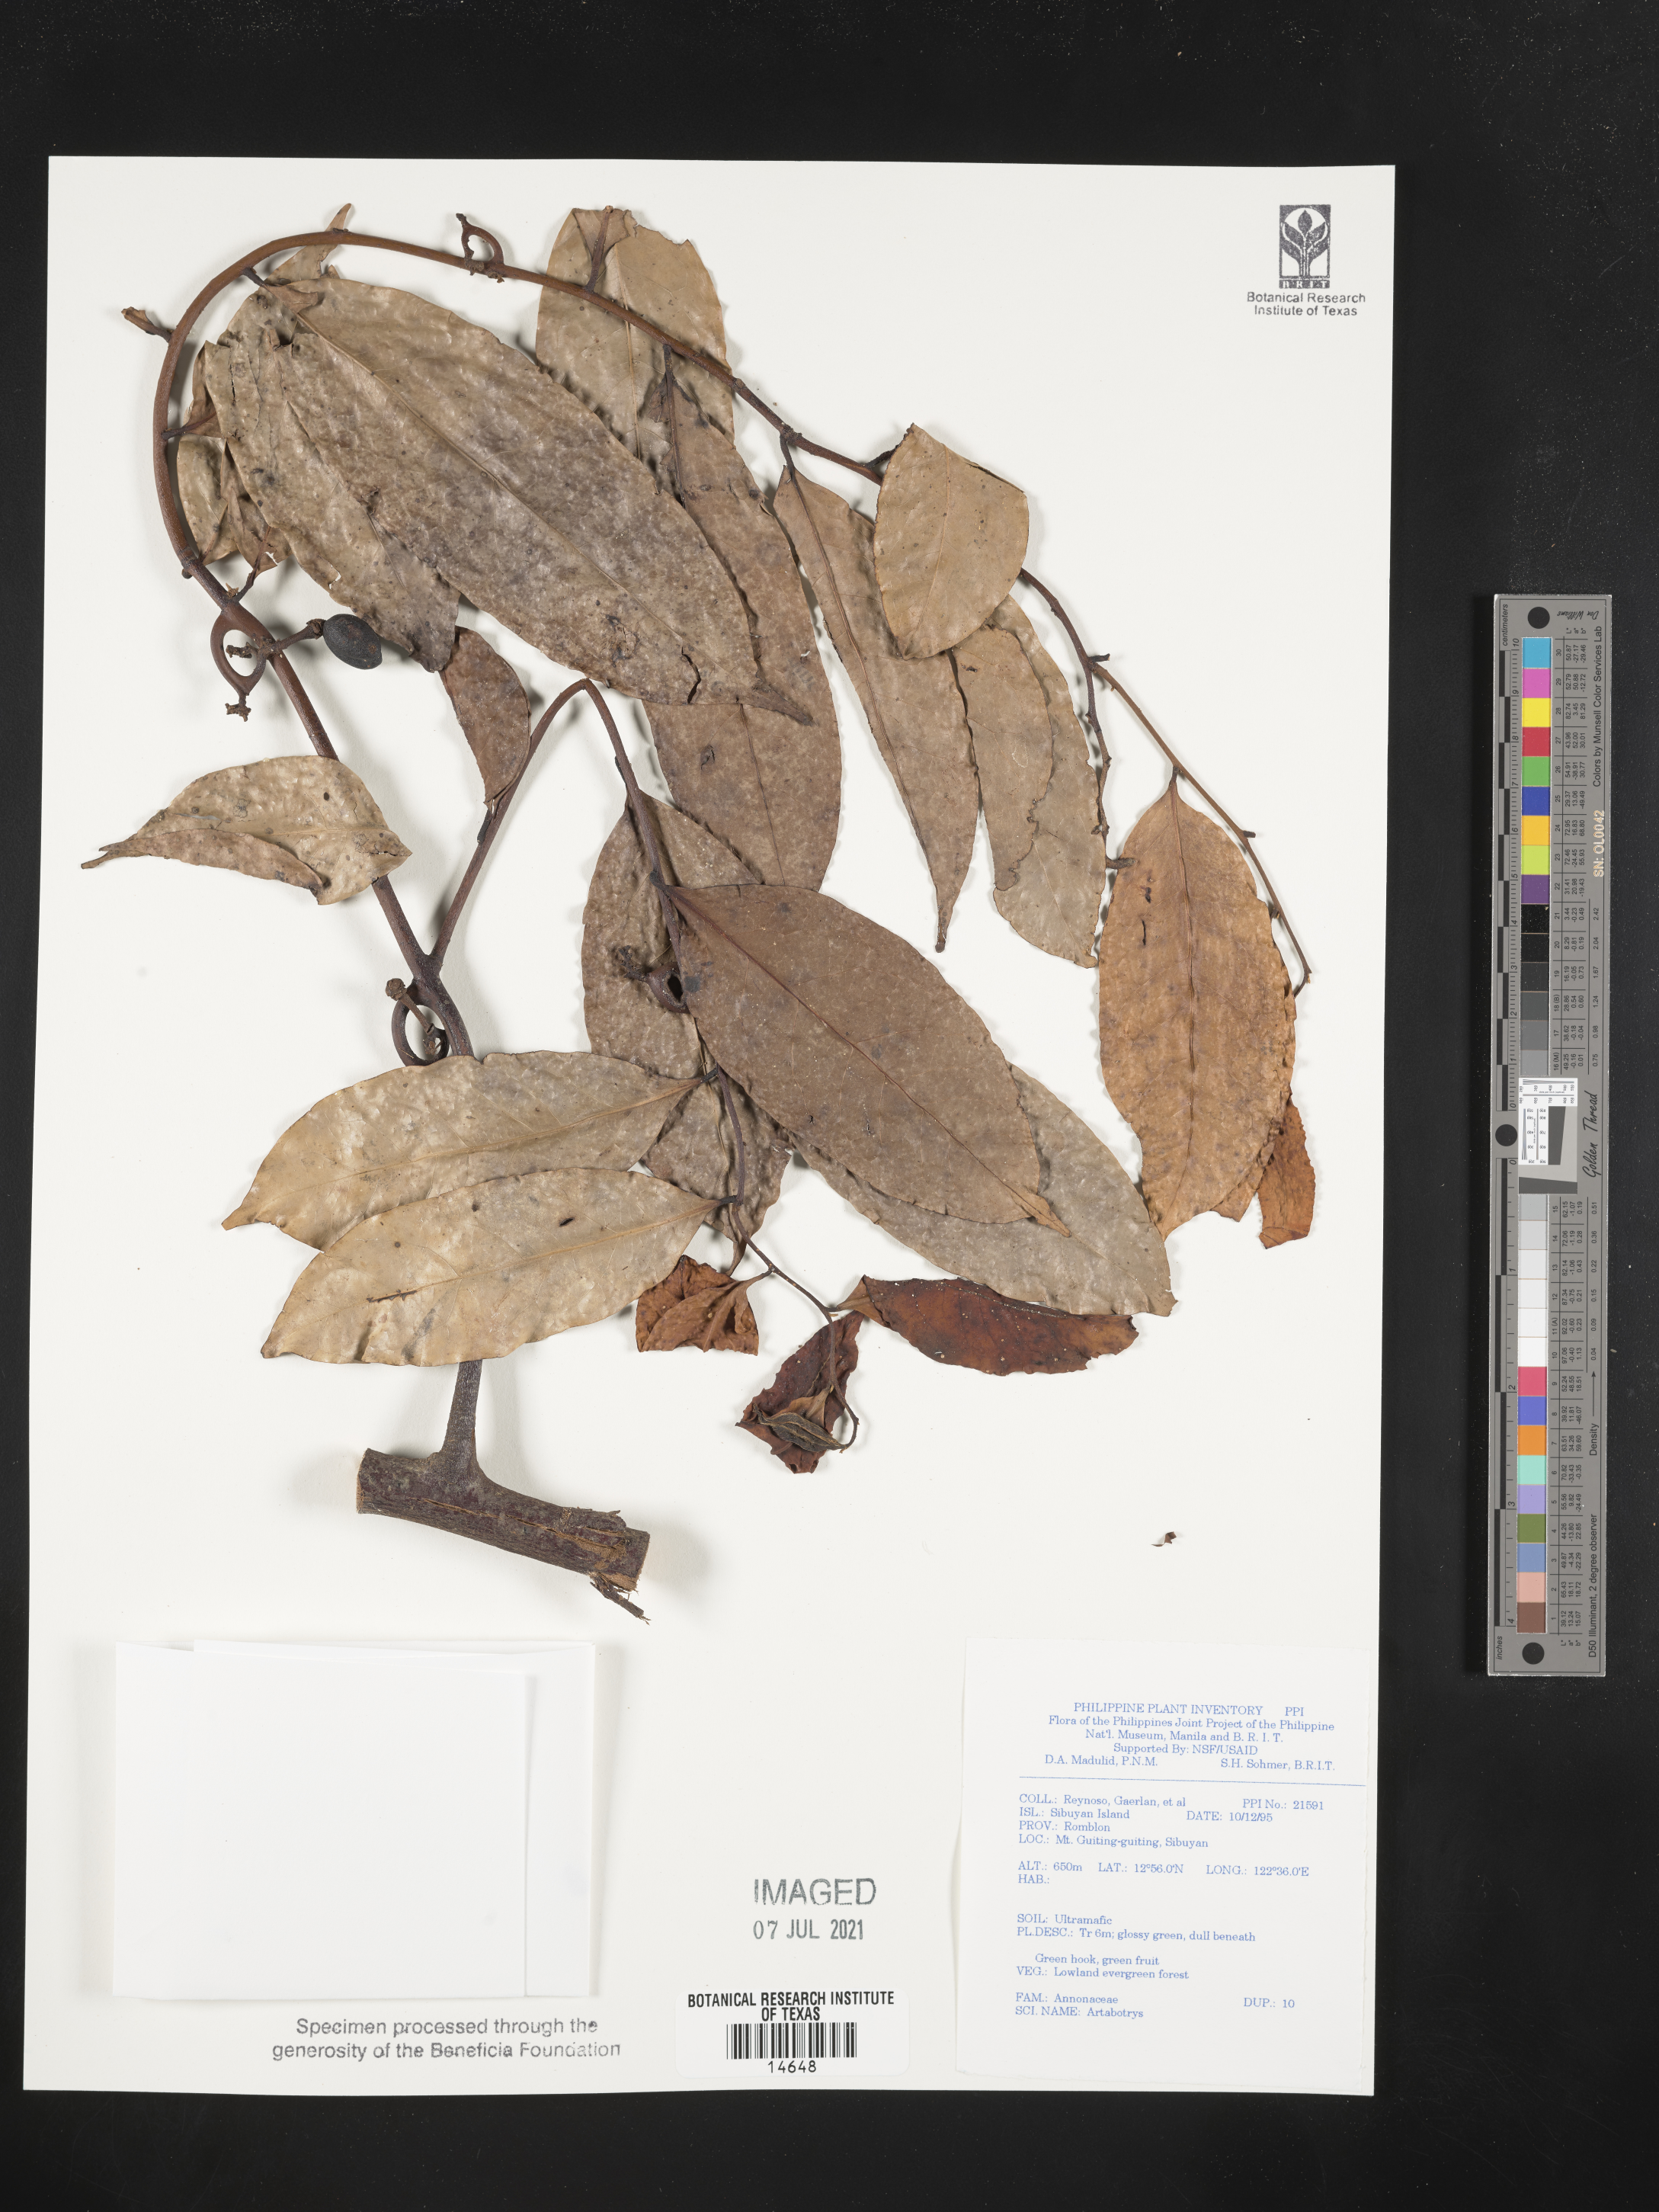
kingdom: Plantae
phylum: Tracheophyta
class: Magnoliopsida
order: Magnoliales
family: Annonaceae
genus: Artabotrys
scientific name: Artabotrys
